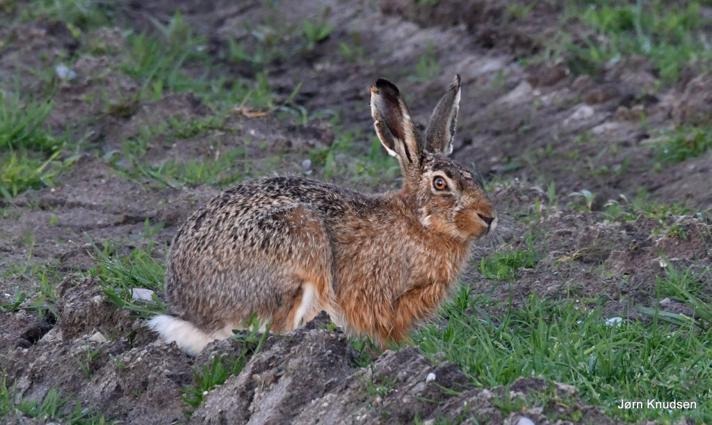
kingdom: Animalia
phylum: Chordata
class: Mammalia
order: Lagomorpha
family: Leporidae
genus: Lepus
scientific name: Lepus europaeus
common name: Hare
